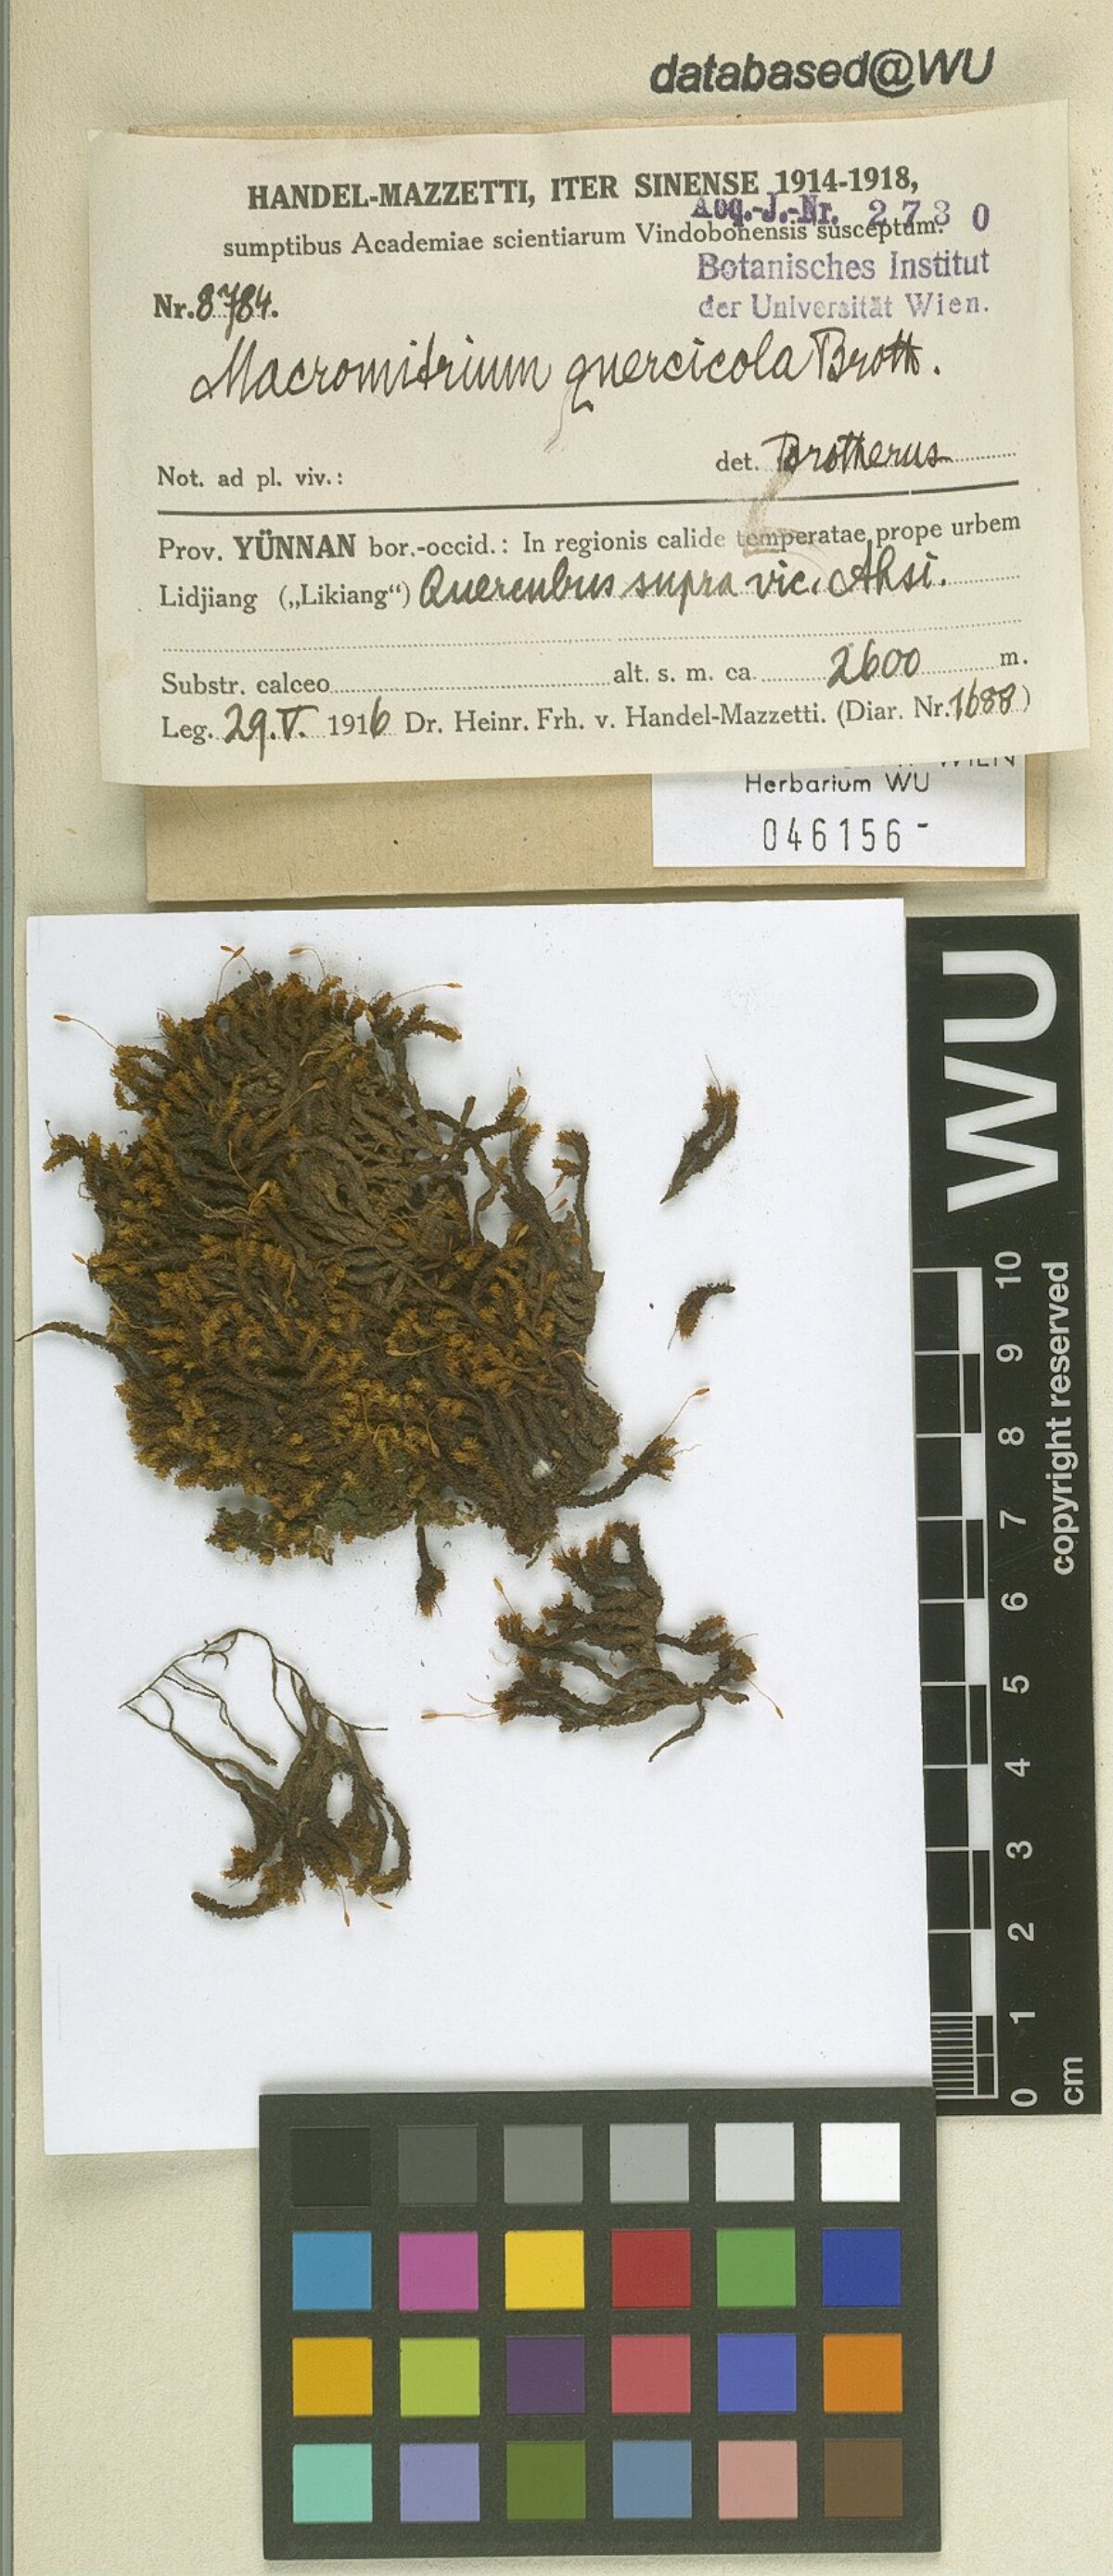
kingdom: Plantae
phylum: Bryophyta
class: Bryopsida
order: Orthotrichales
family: Orthotrichaceae
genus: Macromitrium
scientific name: Macromitrium ferriei
